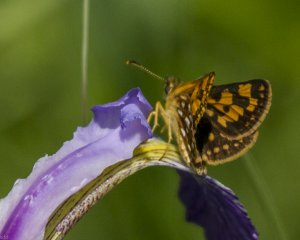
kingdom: Animalia
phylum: Arthropoda
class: Insecta
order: Lepidoptera
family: Hesperiidae
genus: Carterocephalus
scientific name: Carterocephalus palaemon
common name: Chequered Skipper
